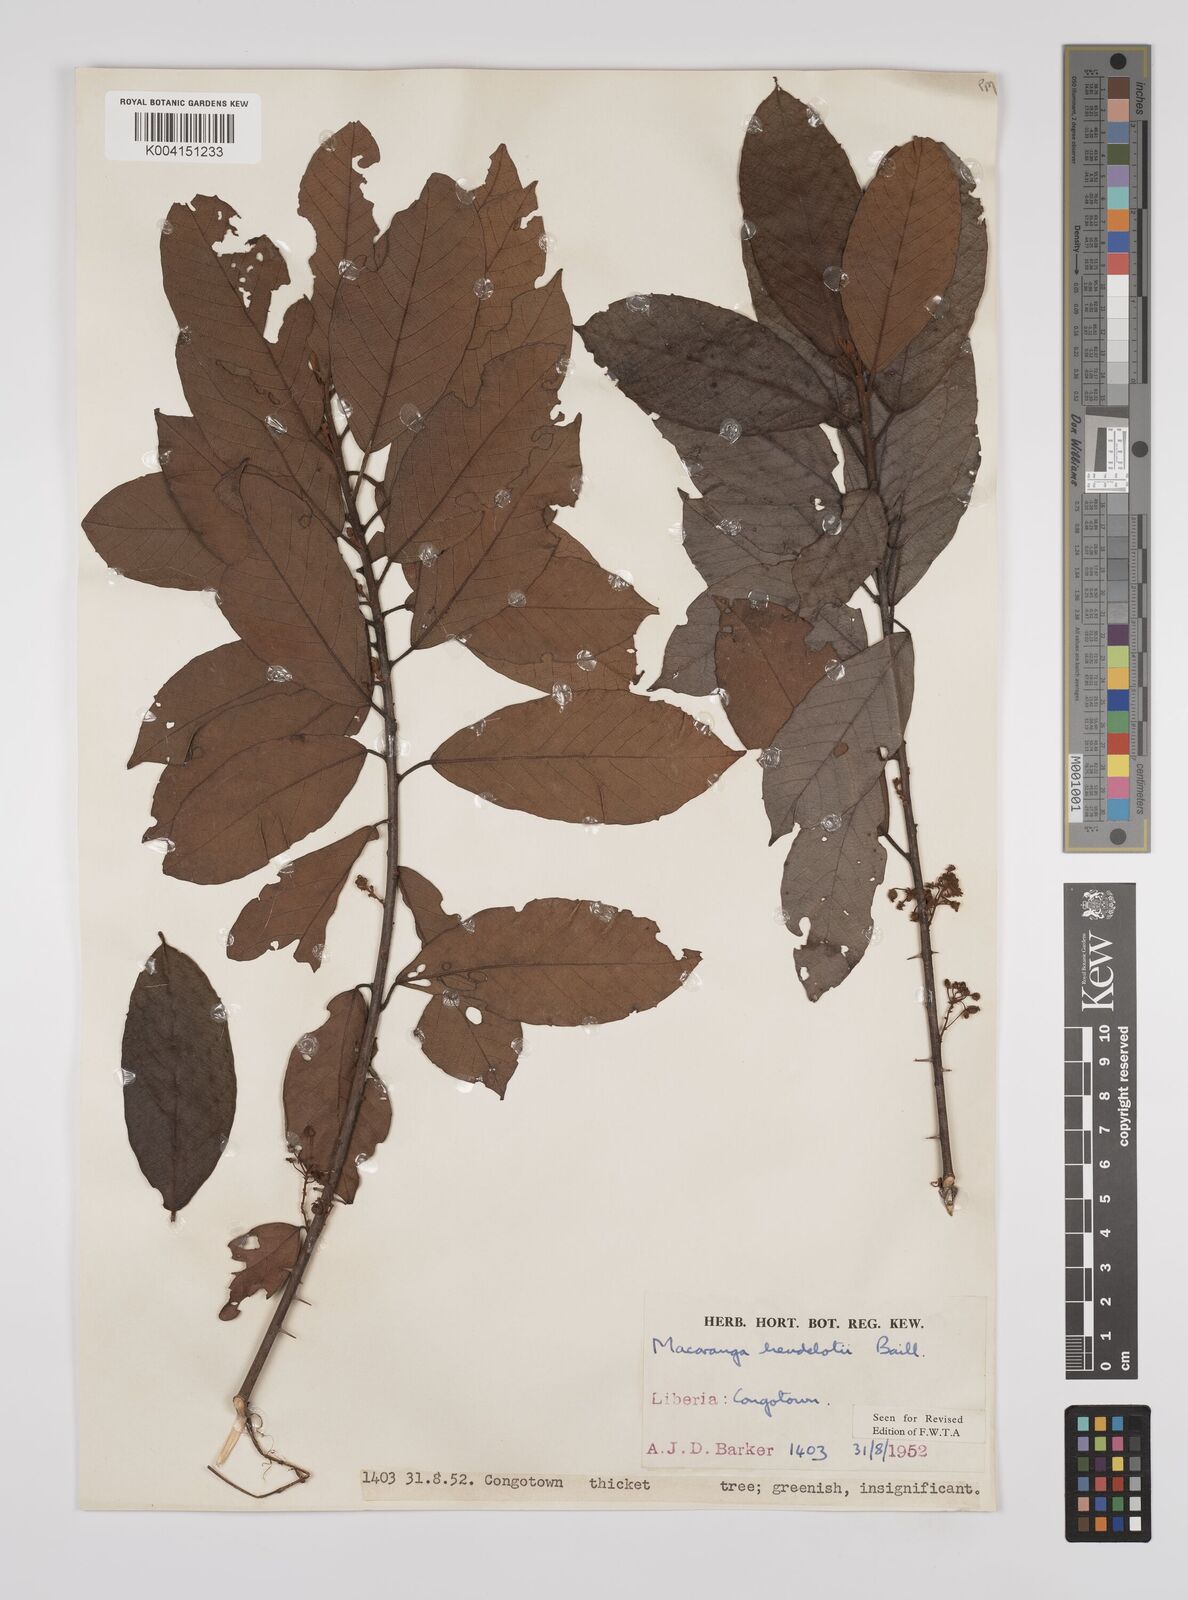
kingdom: Plantae
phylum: Tracheophyta
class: Magnoliopsida
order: Malpighiales
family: Euphorbiaceae
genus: Macaranga
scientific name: Macaranga heudelotii
